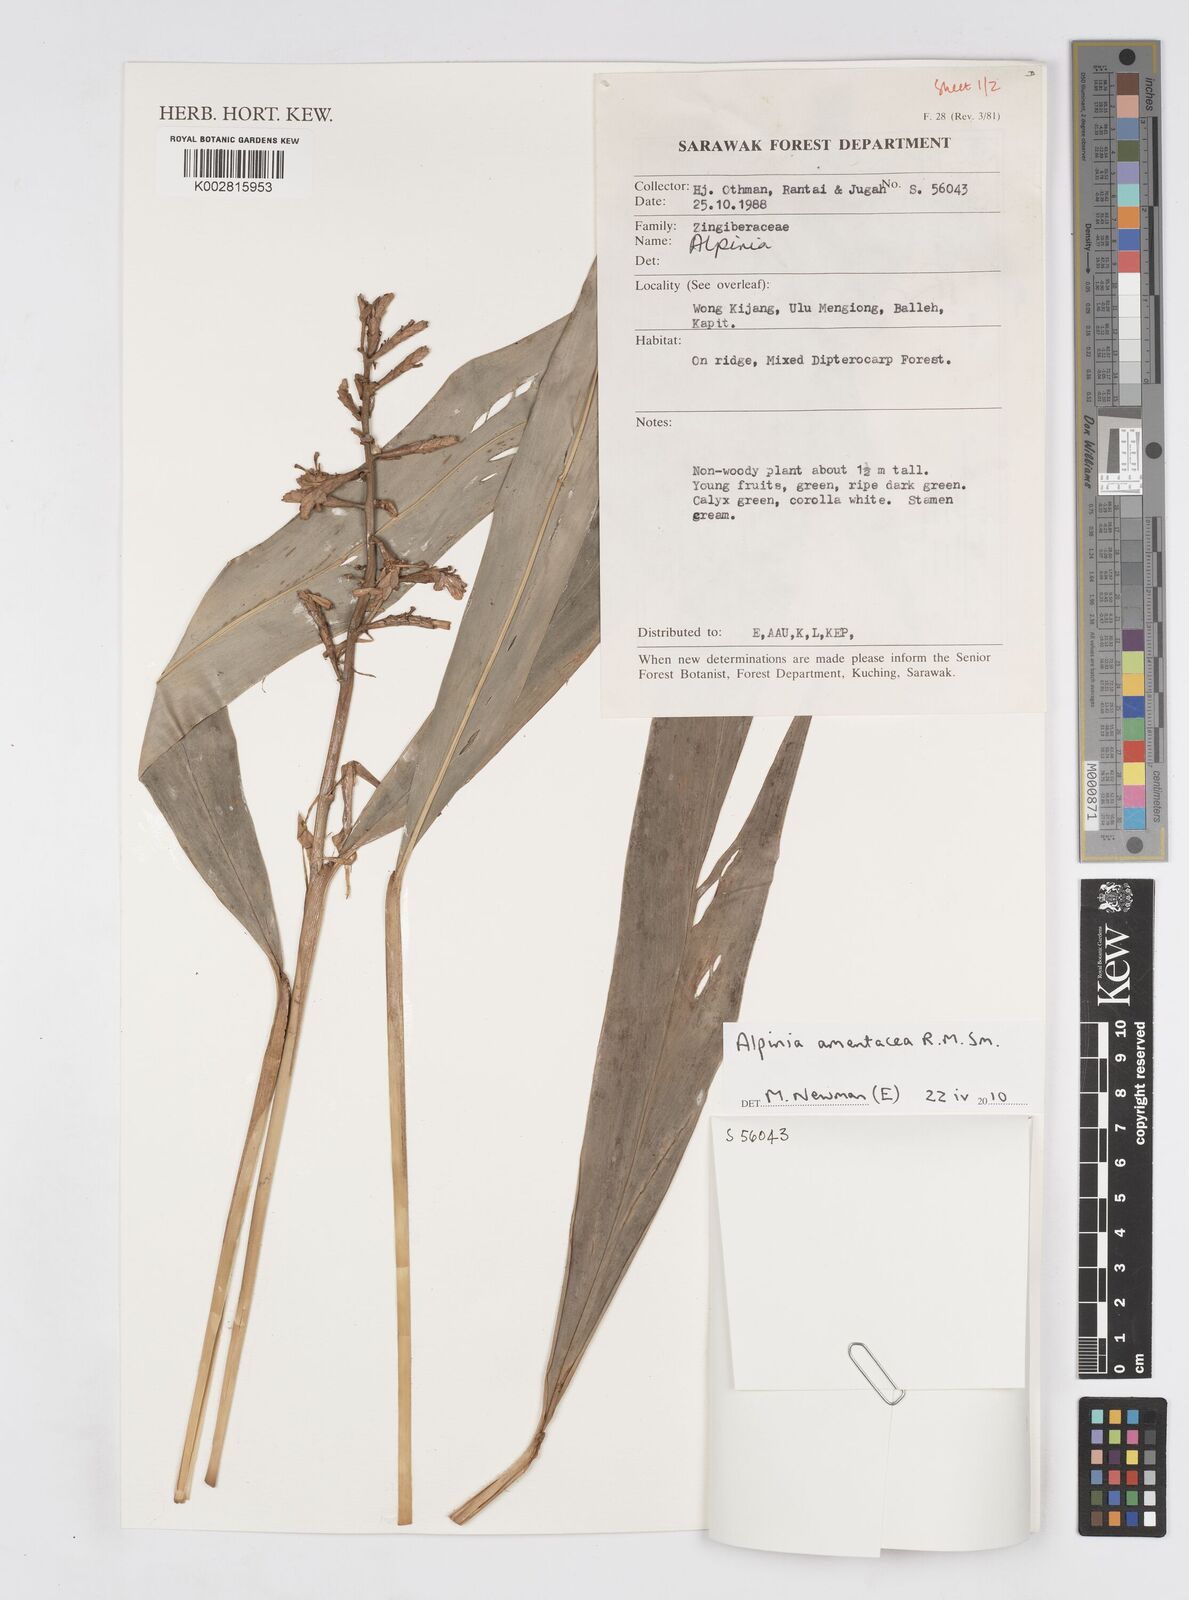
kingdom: Plantae
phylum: Tracheophyta
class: Liliopsida
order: Zingiberales
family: Zingiberaceae
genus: Alpinia
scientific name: Alpinia amentacea
